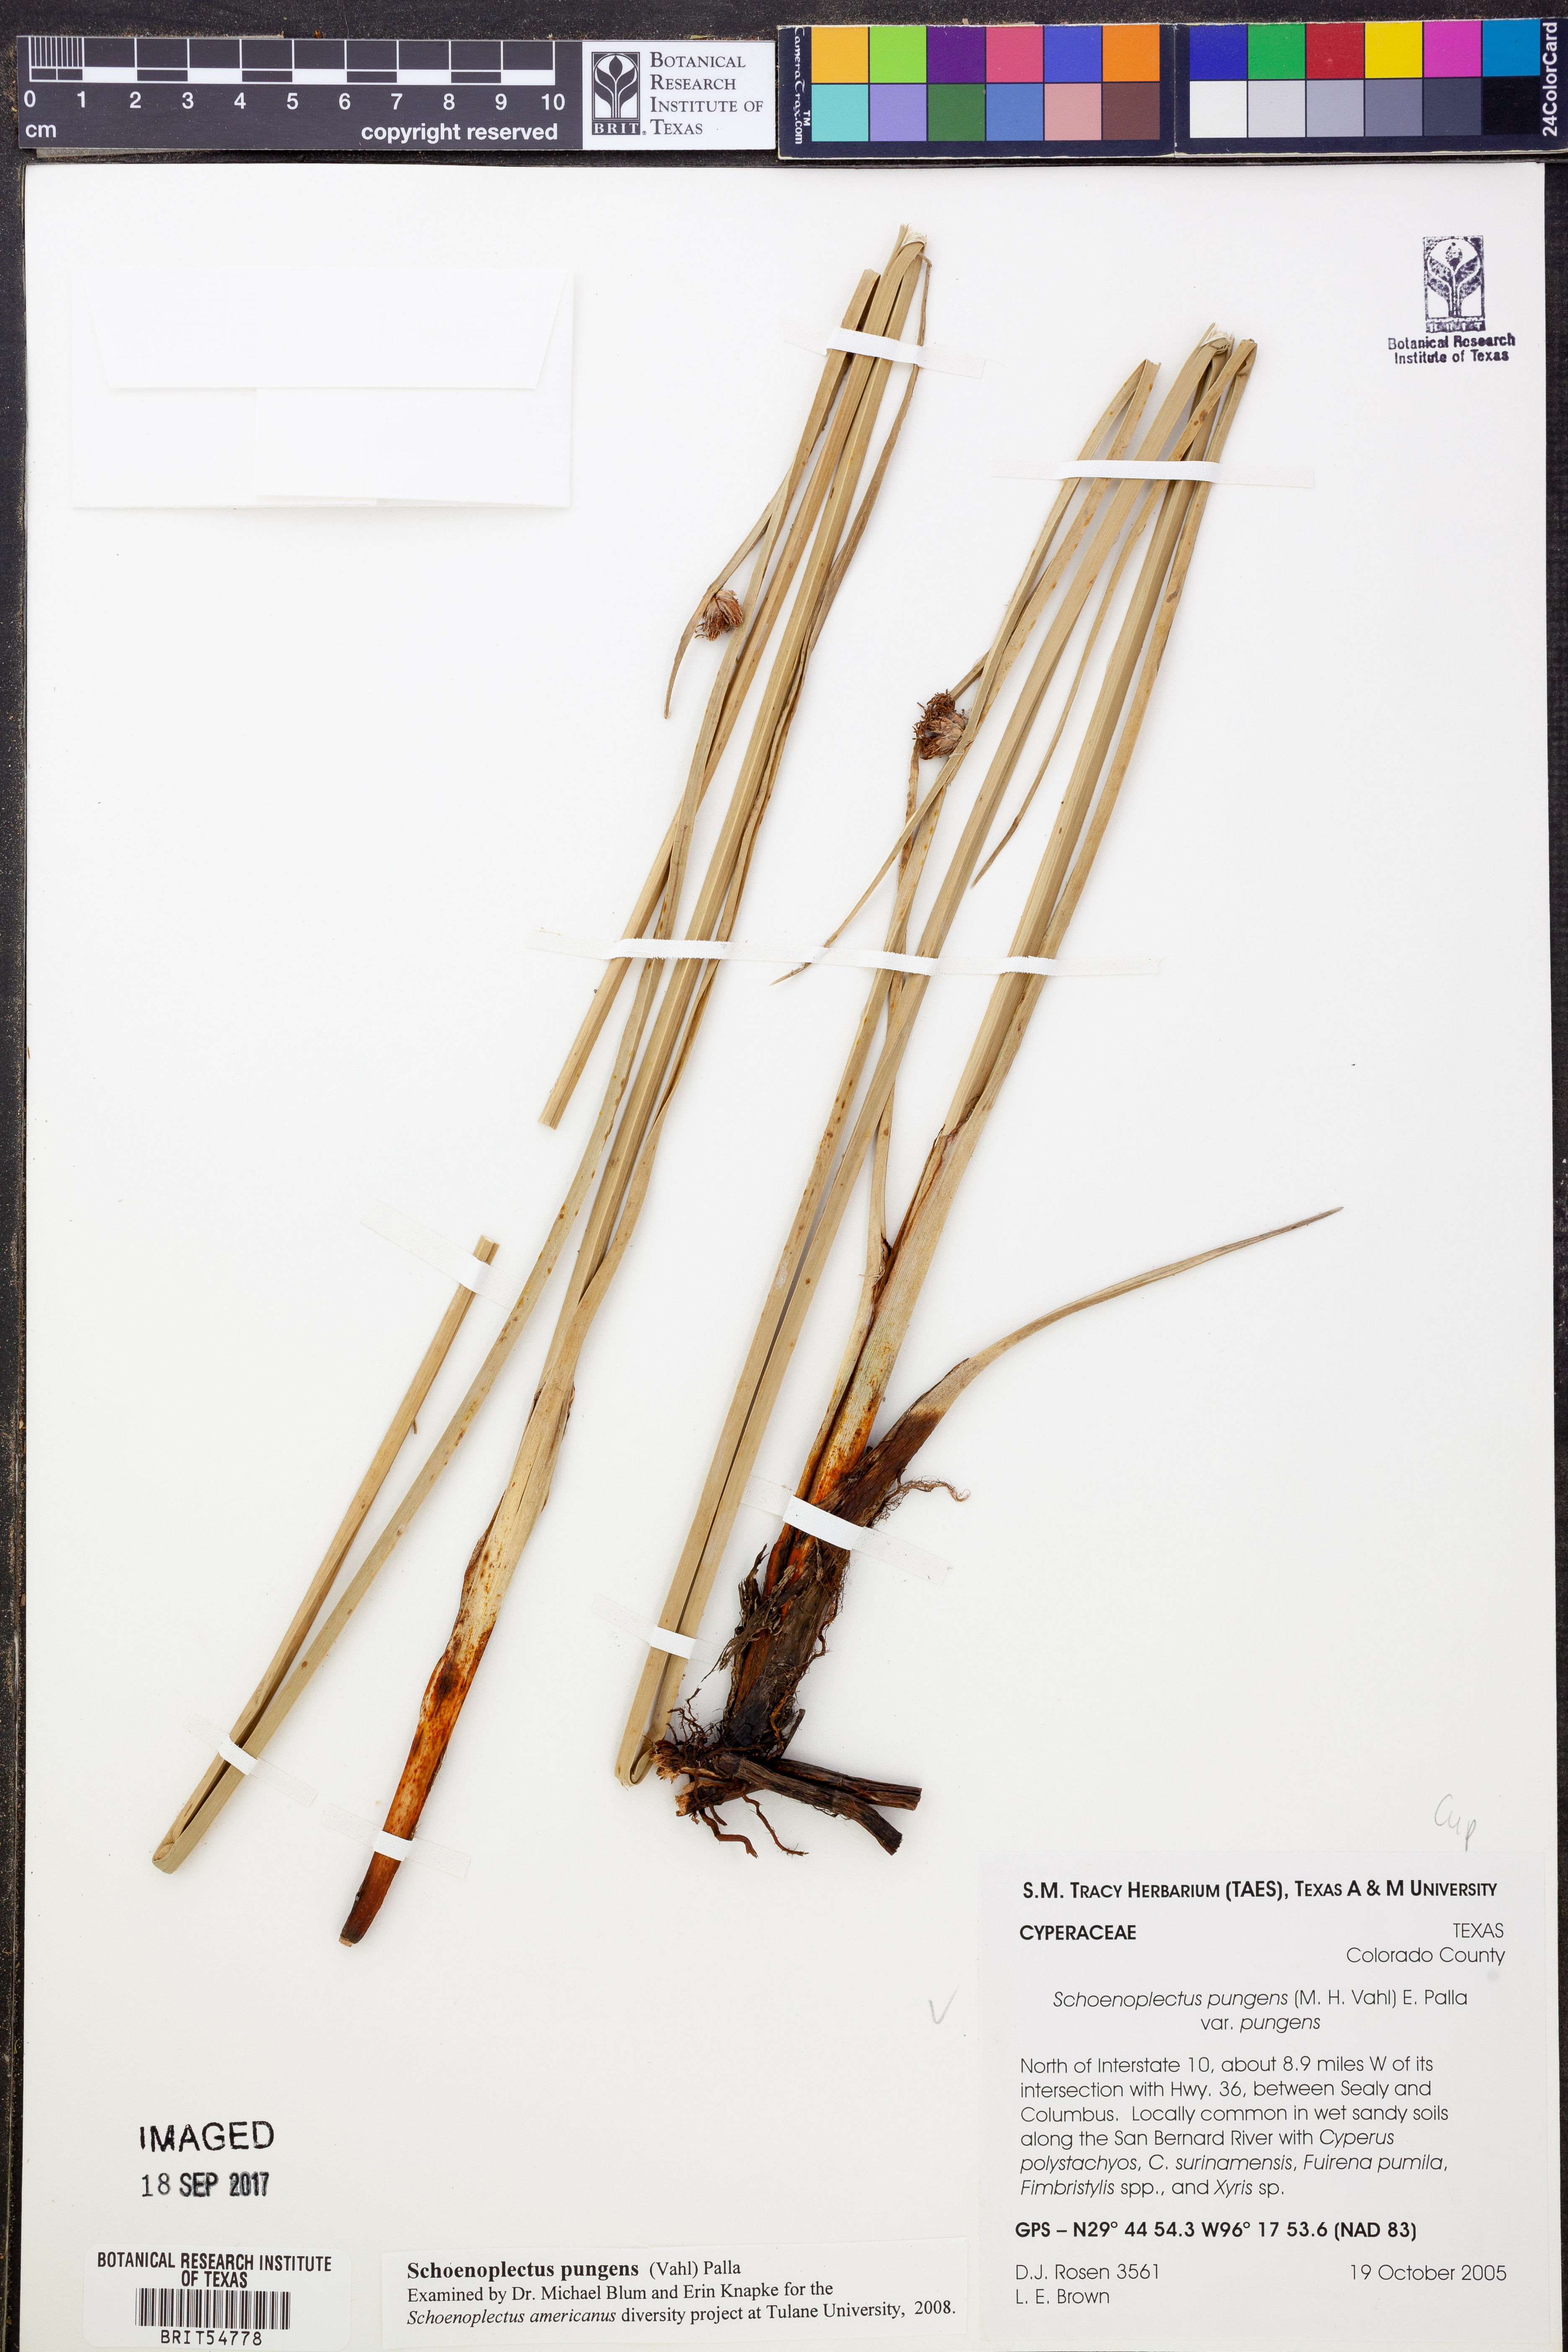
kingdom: Plantae
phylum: Tracheophyta
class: Liliopsida
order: Poales
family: Cyperaceae
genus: Schoenoplectus
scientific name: Schoenoplectus pungens
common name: Sharp club-rush
